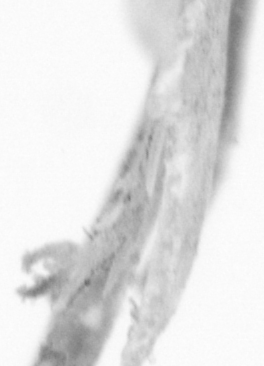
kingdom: Animalia
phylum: Chordata
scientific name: Chordata
